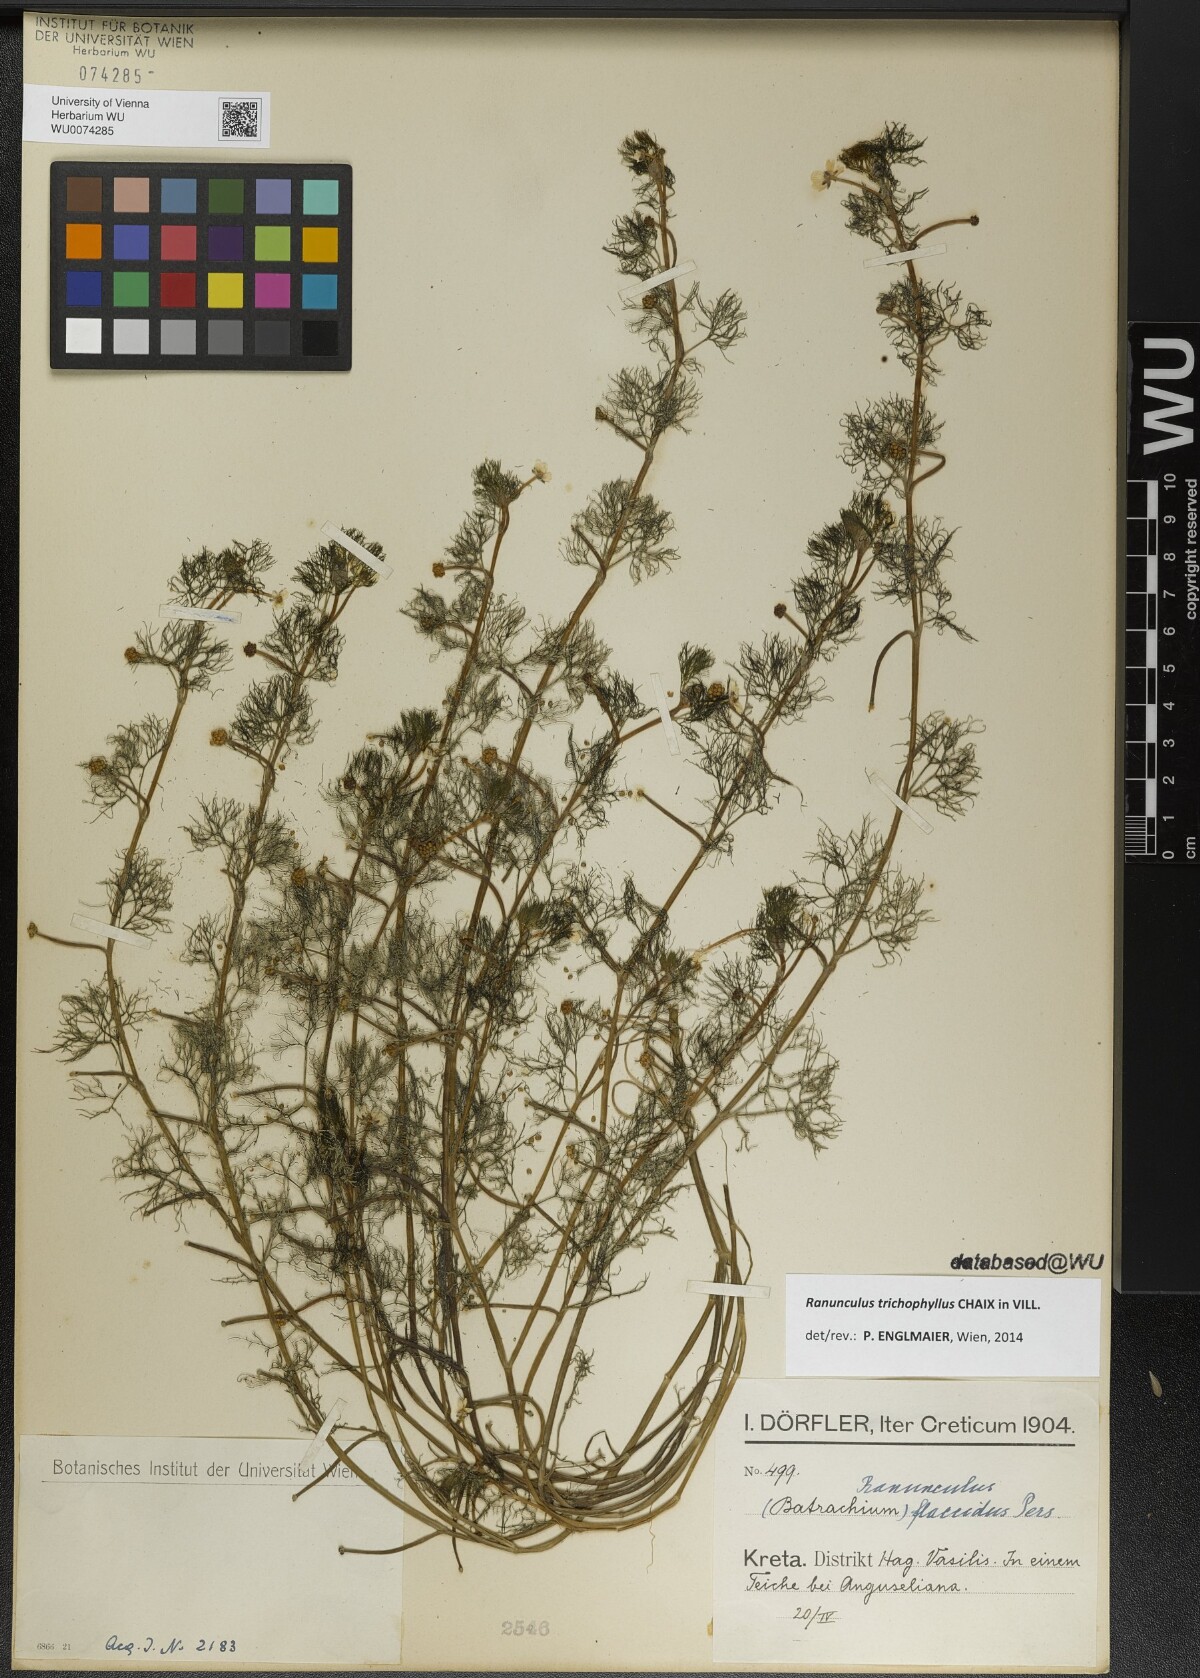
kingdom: Plantae
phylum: Tracheophyta
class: Magnoliopsida
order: Ranunculales
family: Ranunculaceae
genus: Ranunculus
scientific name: Ranunculus trichophyllus
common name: Thread-leaved water-crowfoot
